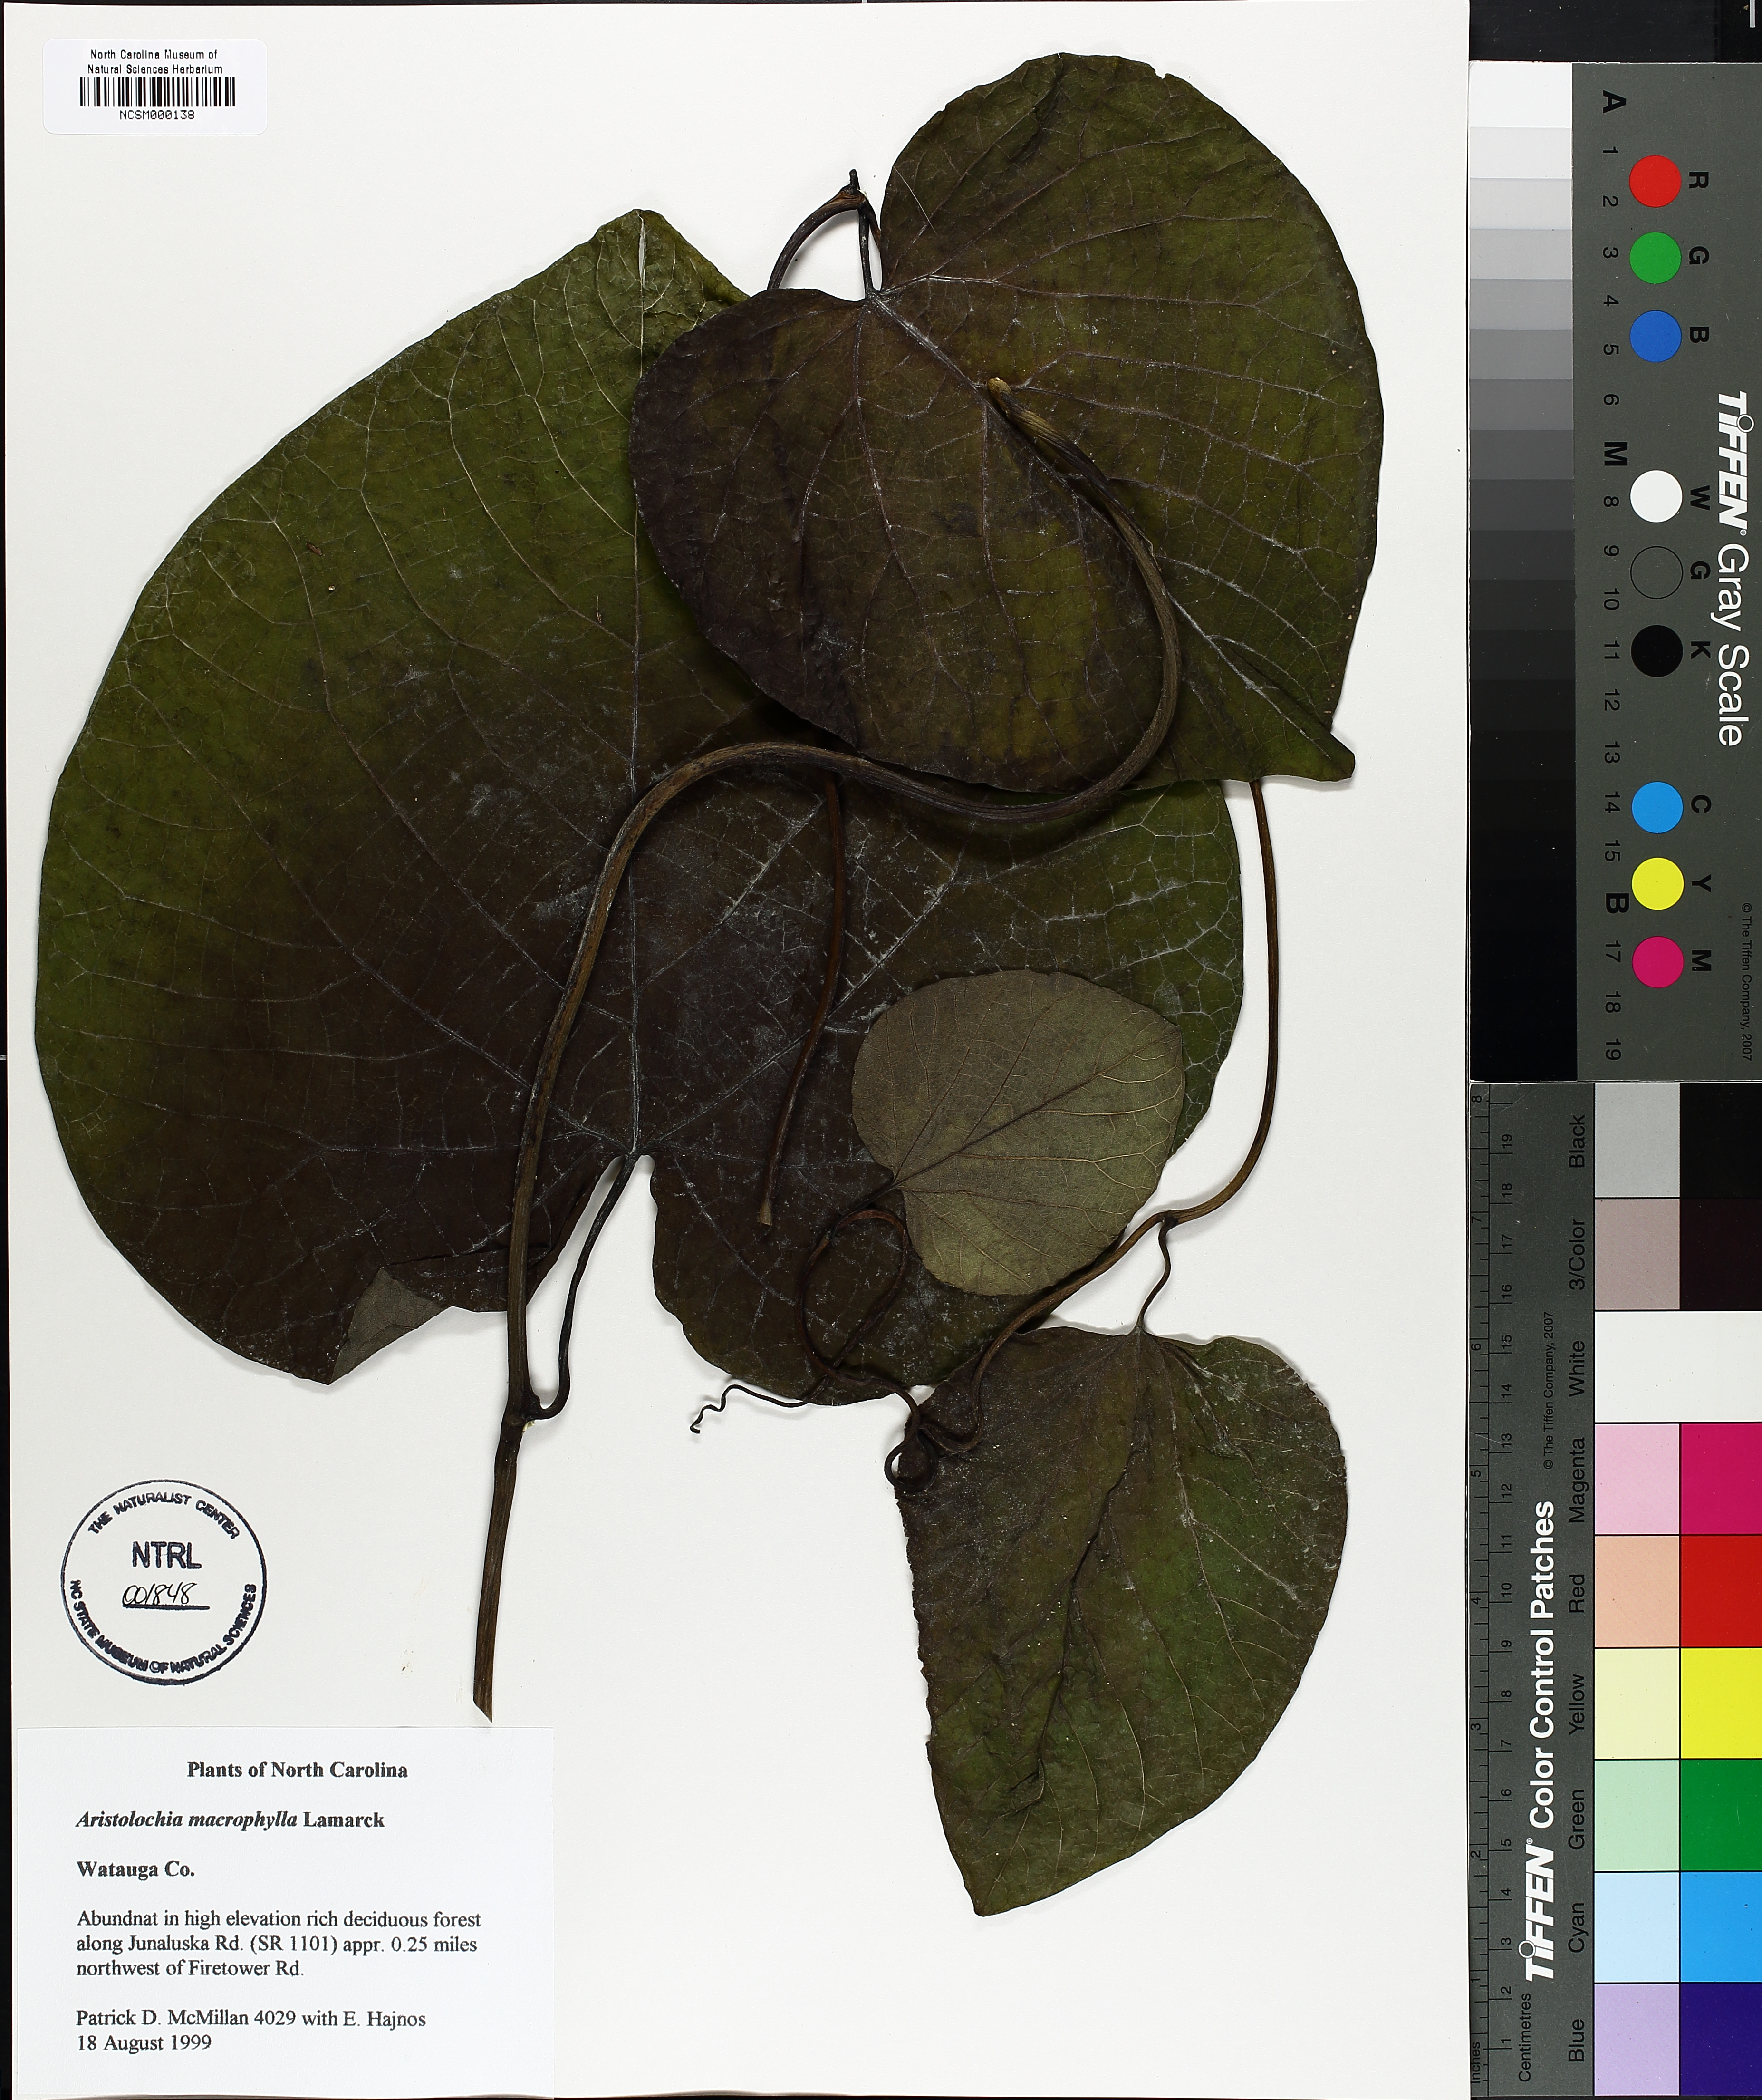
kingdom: Plantae
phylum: Tracheophyta
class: Magnoliopsida
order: Piperales
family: Aristolochiaceae
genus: Isotrema
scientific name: Isotrema macrophyllum
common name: Dutchman's-pipe
